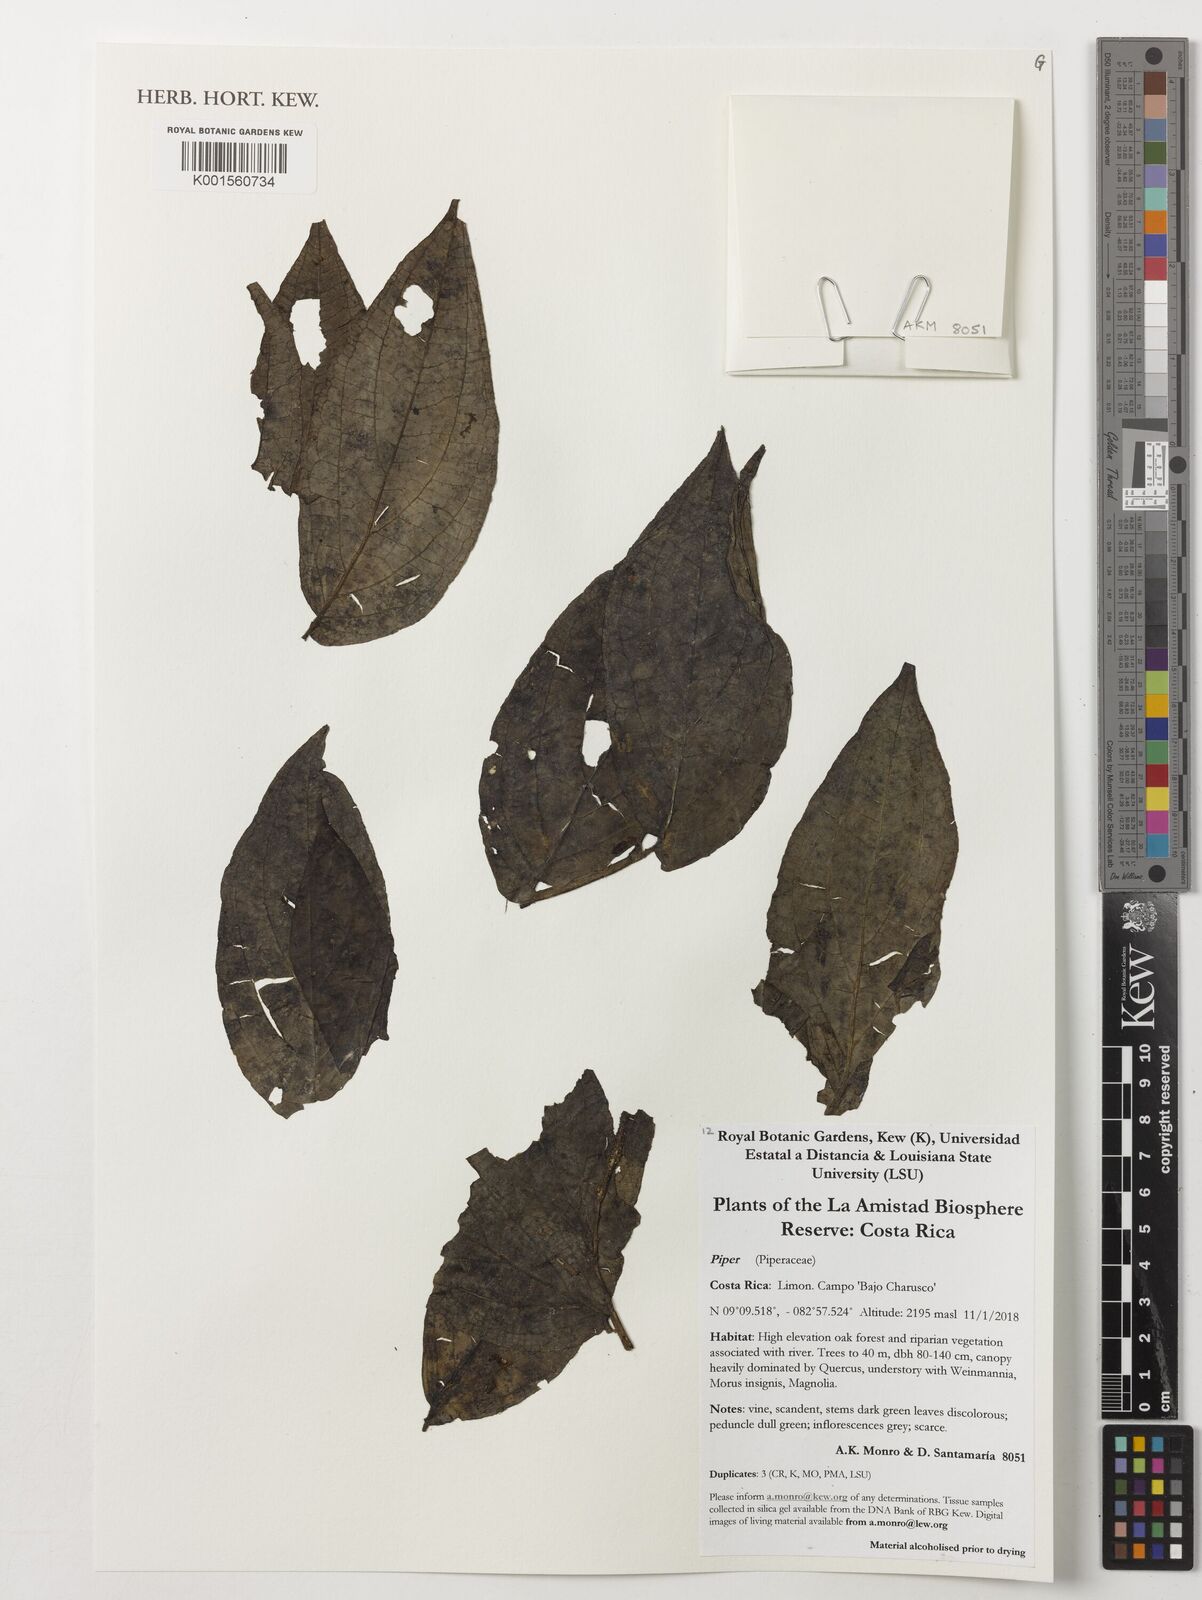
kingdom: Plantae
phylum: Tracheophyta
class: Magnoliopsida
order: Piperales
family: Piperaceae
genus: Piper
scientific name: Piper
